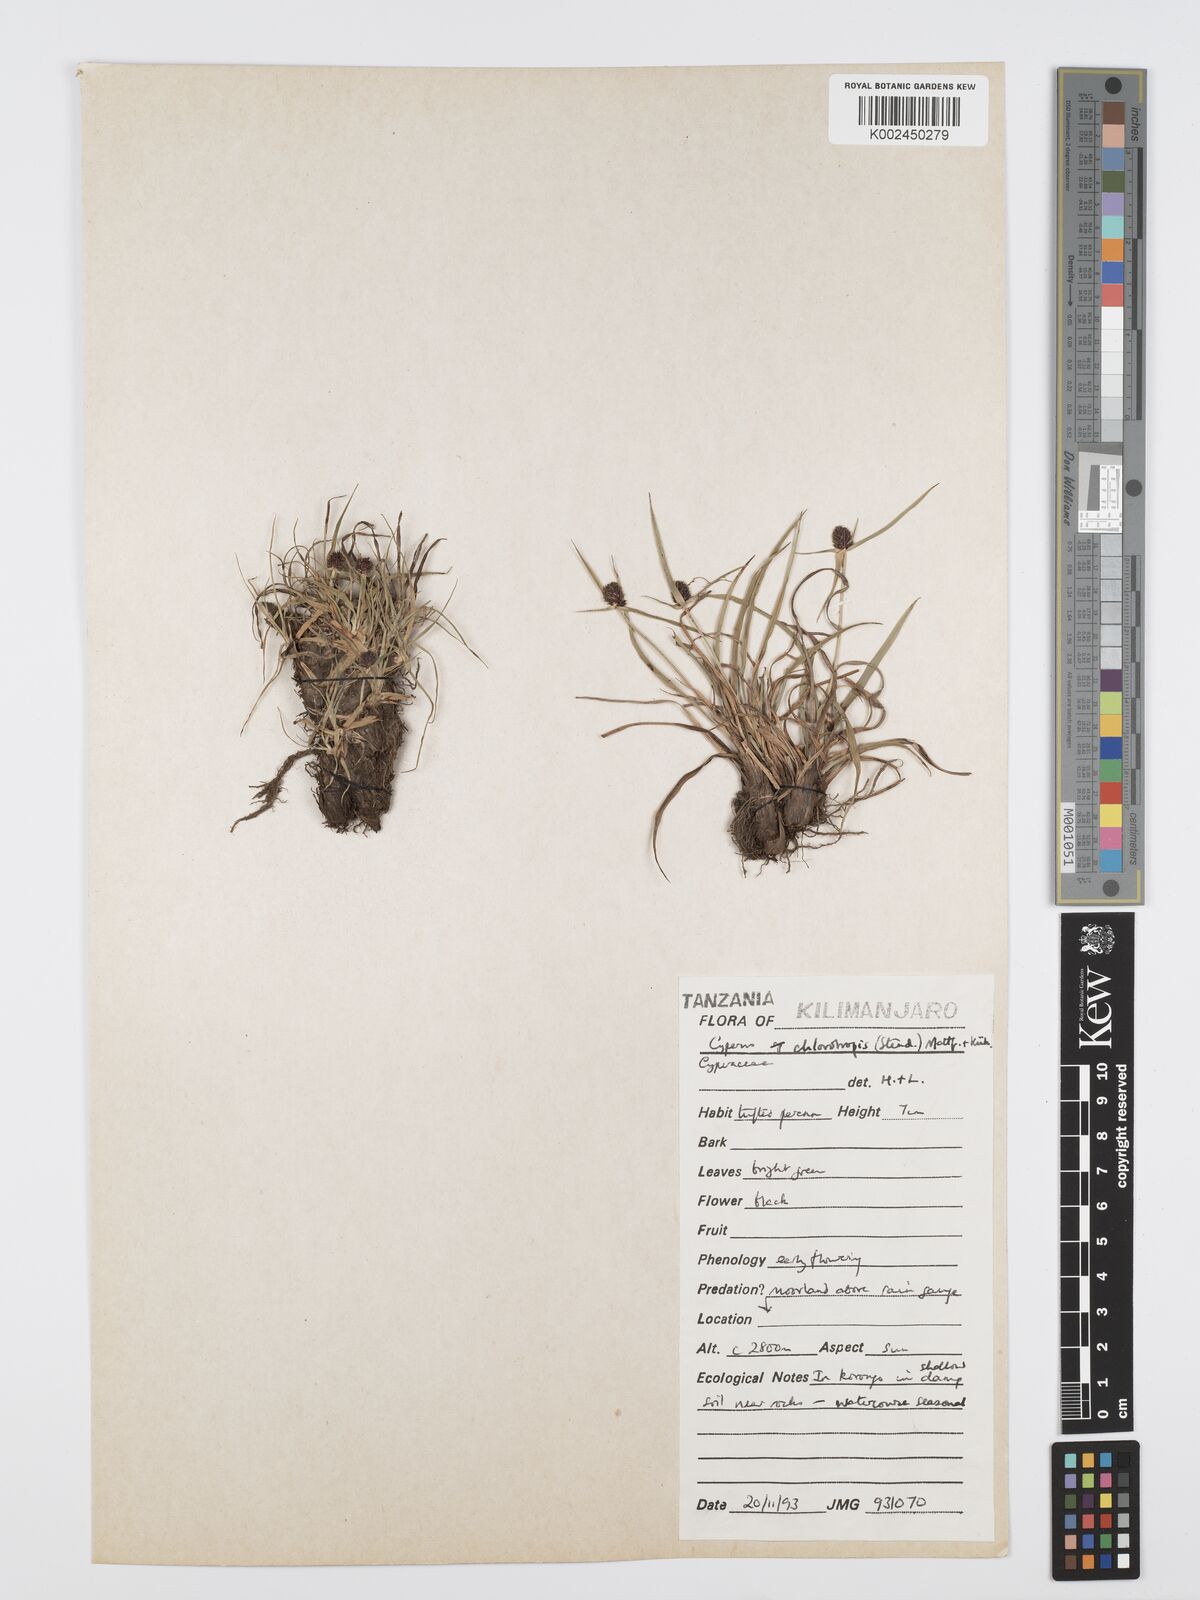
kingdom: Plantae
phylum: Tracheophyta
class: Liliopsida
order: Poales
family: Cyperaceae
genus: Cyperus
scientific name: Cyperus
